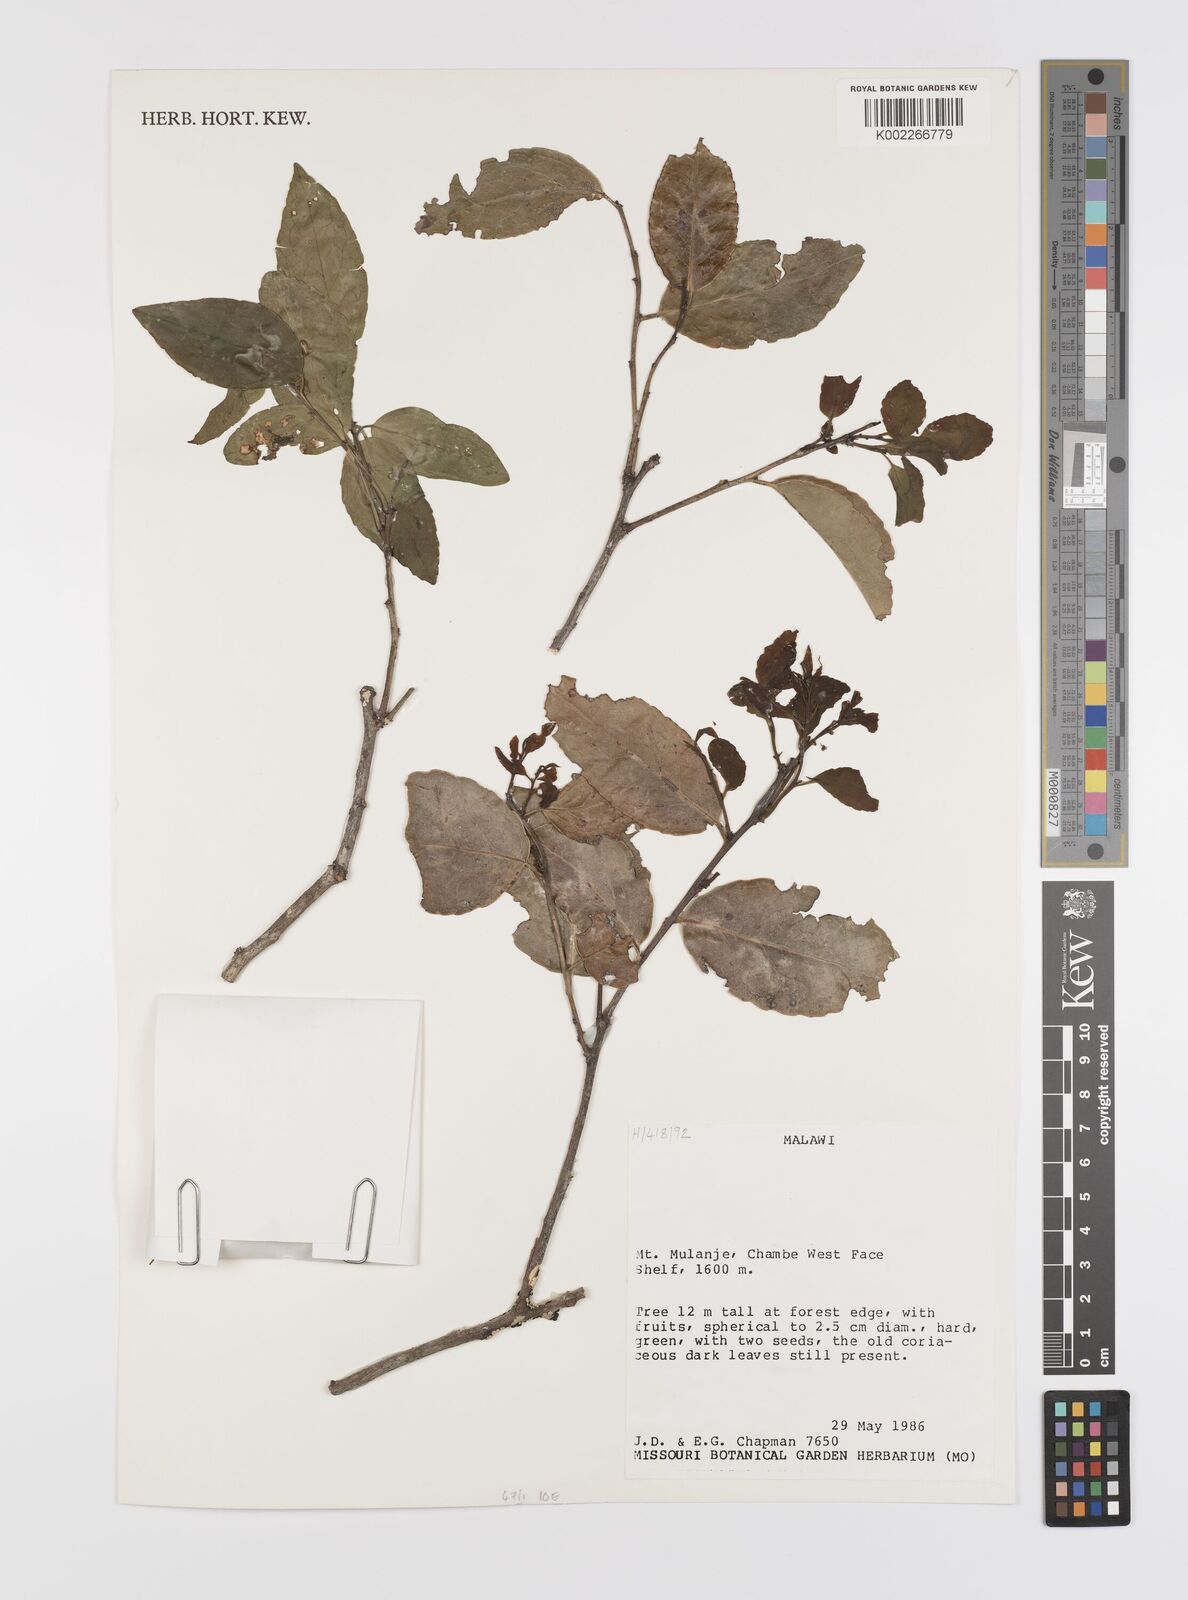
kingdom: Plantae
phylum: Tracheophyta
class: Magnoliopsida
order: Celastrales
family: Celastraceae
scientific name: Celastraceae
